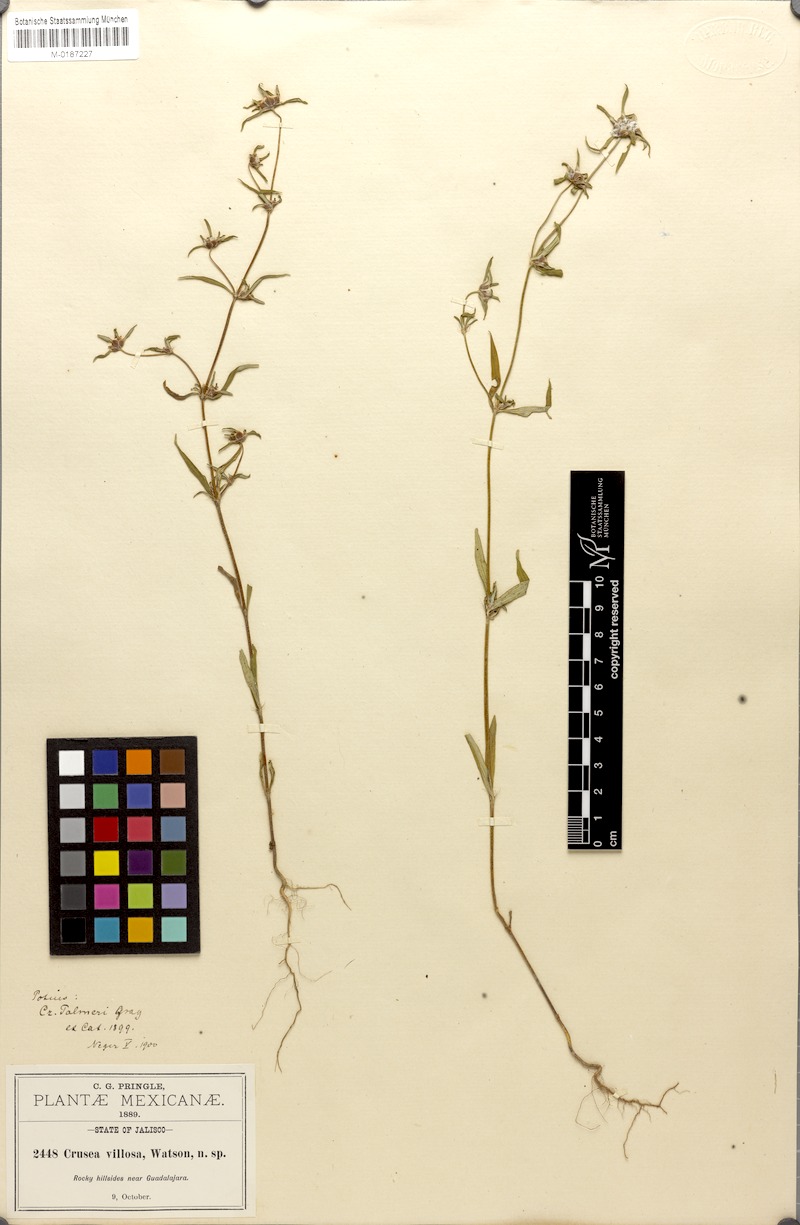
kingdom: Plantae
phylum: Tracheophyta
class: Magnoliopsida
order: Gentianales
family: Rubiaceae
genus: Crusea
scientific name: Crusea psyllioides
